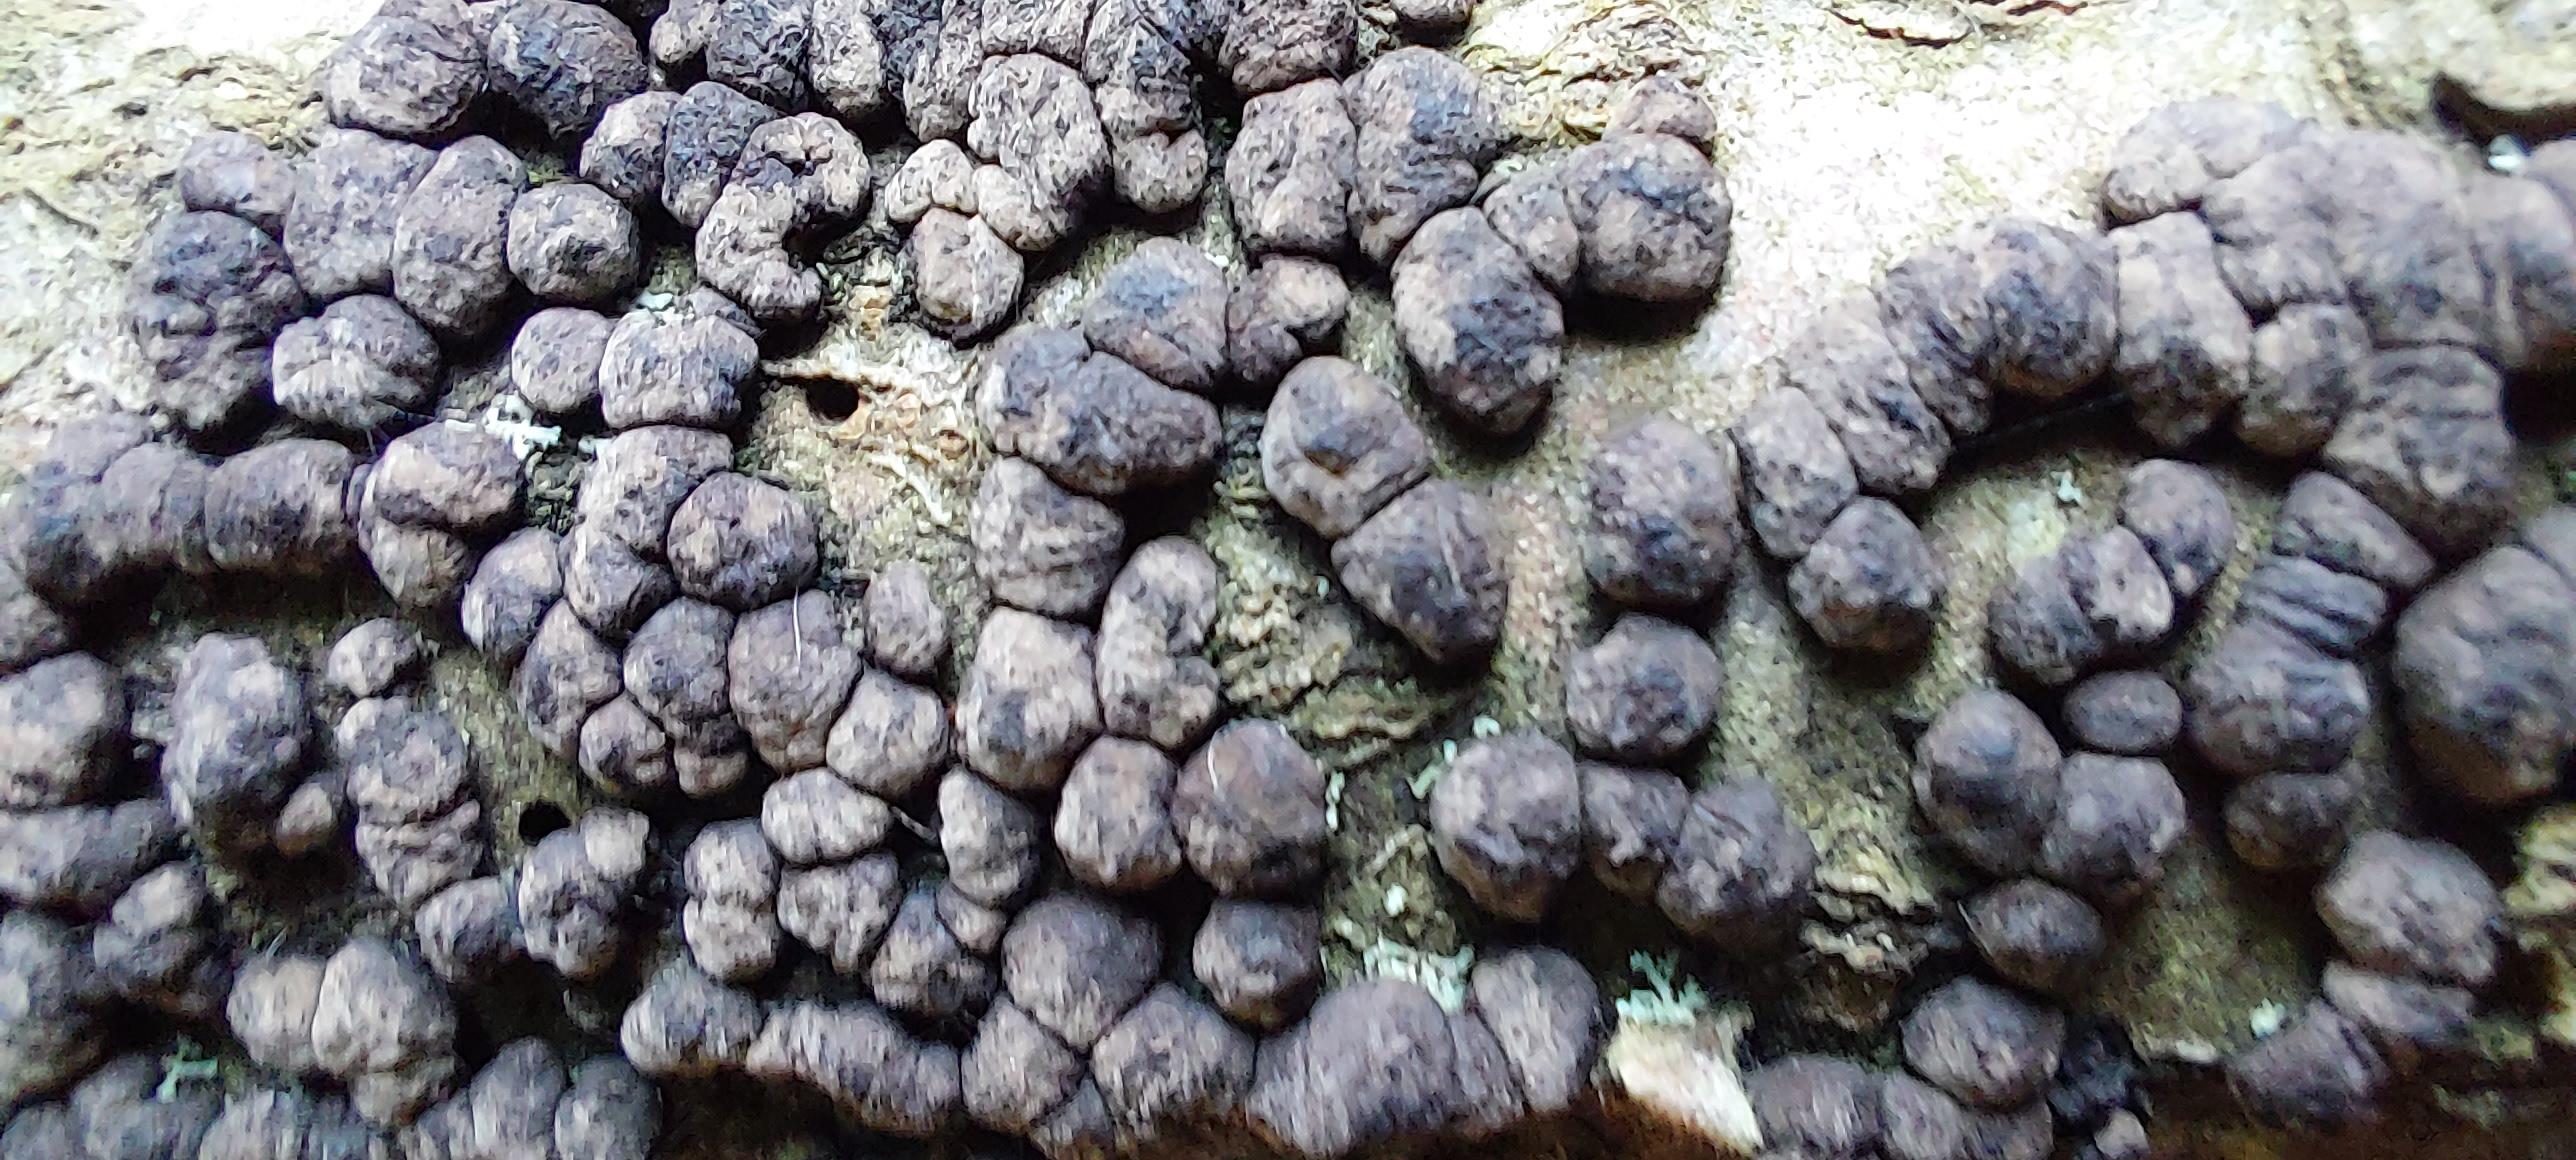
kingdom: Fungi
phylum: Ascomycota
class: Sordariomycetes
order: Xylariales
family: Hypoxylaceae
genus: Jackrogersella
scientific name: Jackrogersella cohaerens
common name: sammenflydende kulbær
